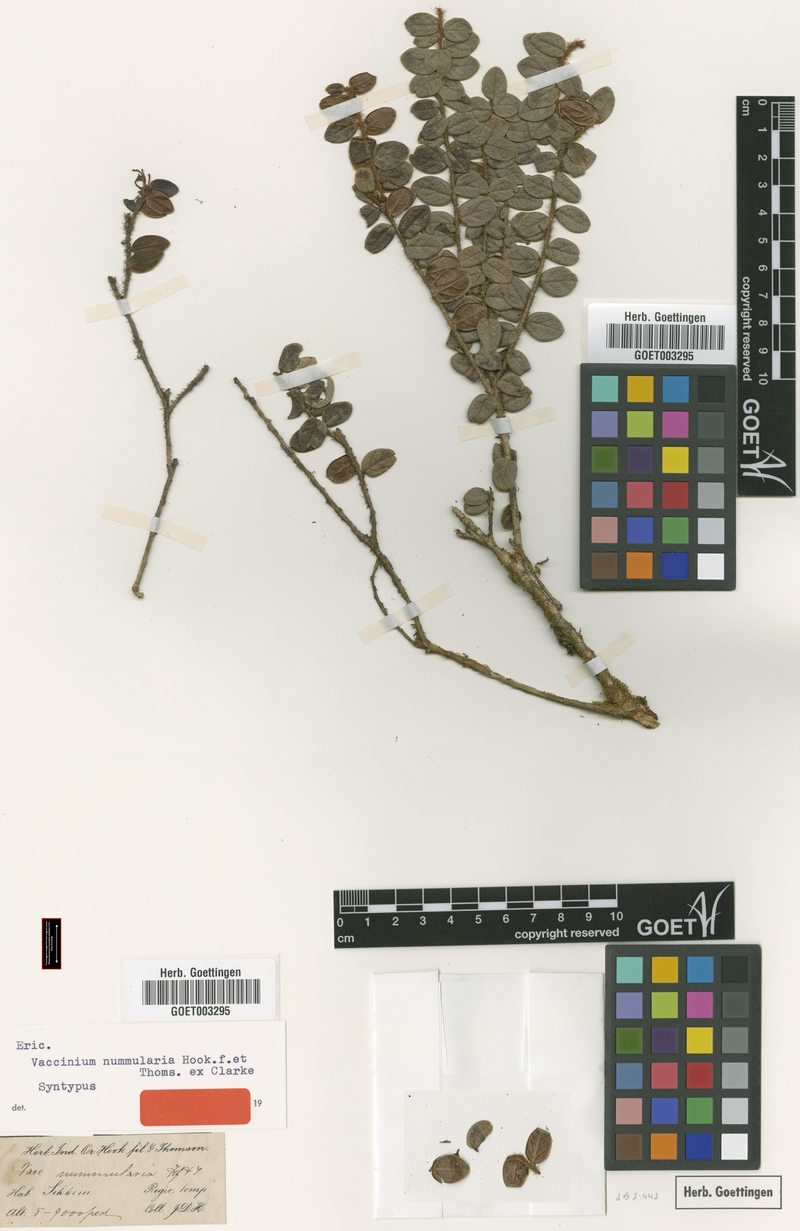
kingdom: Plantae
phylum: Tracheophyta
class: Magnoliopsida
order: Ericales
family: Ericaceae
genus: Vaccinium
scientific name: Vaccinium nummularia
